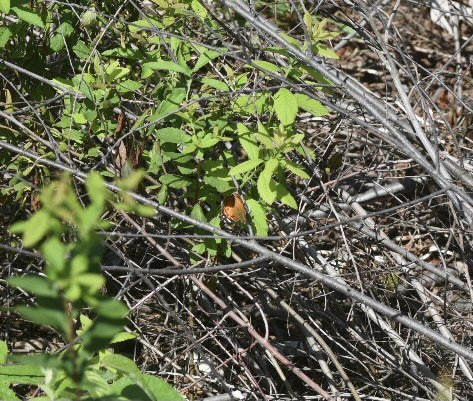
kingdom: Animalia
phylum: Arthropoda
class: Insecta
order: Lepidoptera
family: Nymphalidae
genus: Vanessa
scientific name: Vanessa virginiensis
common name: American Lady
